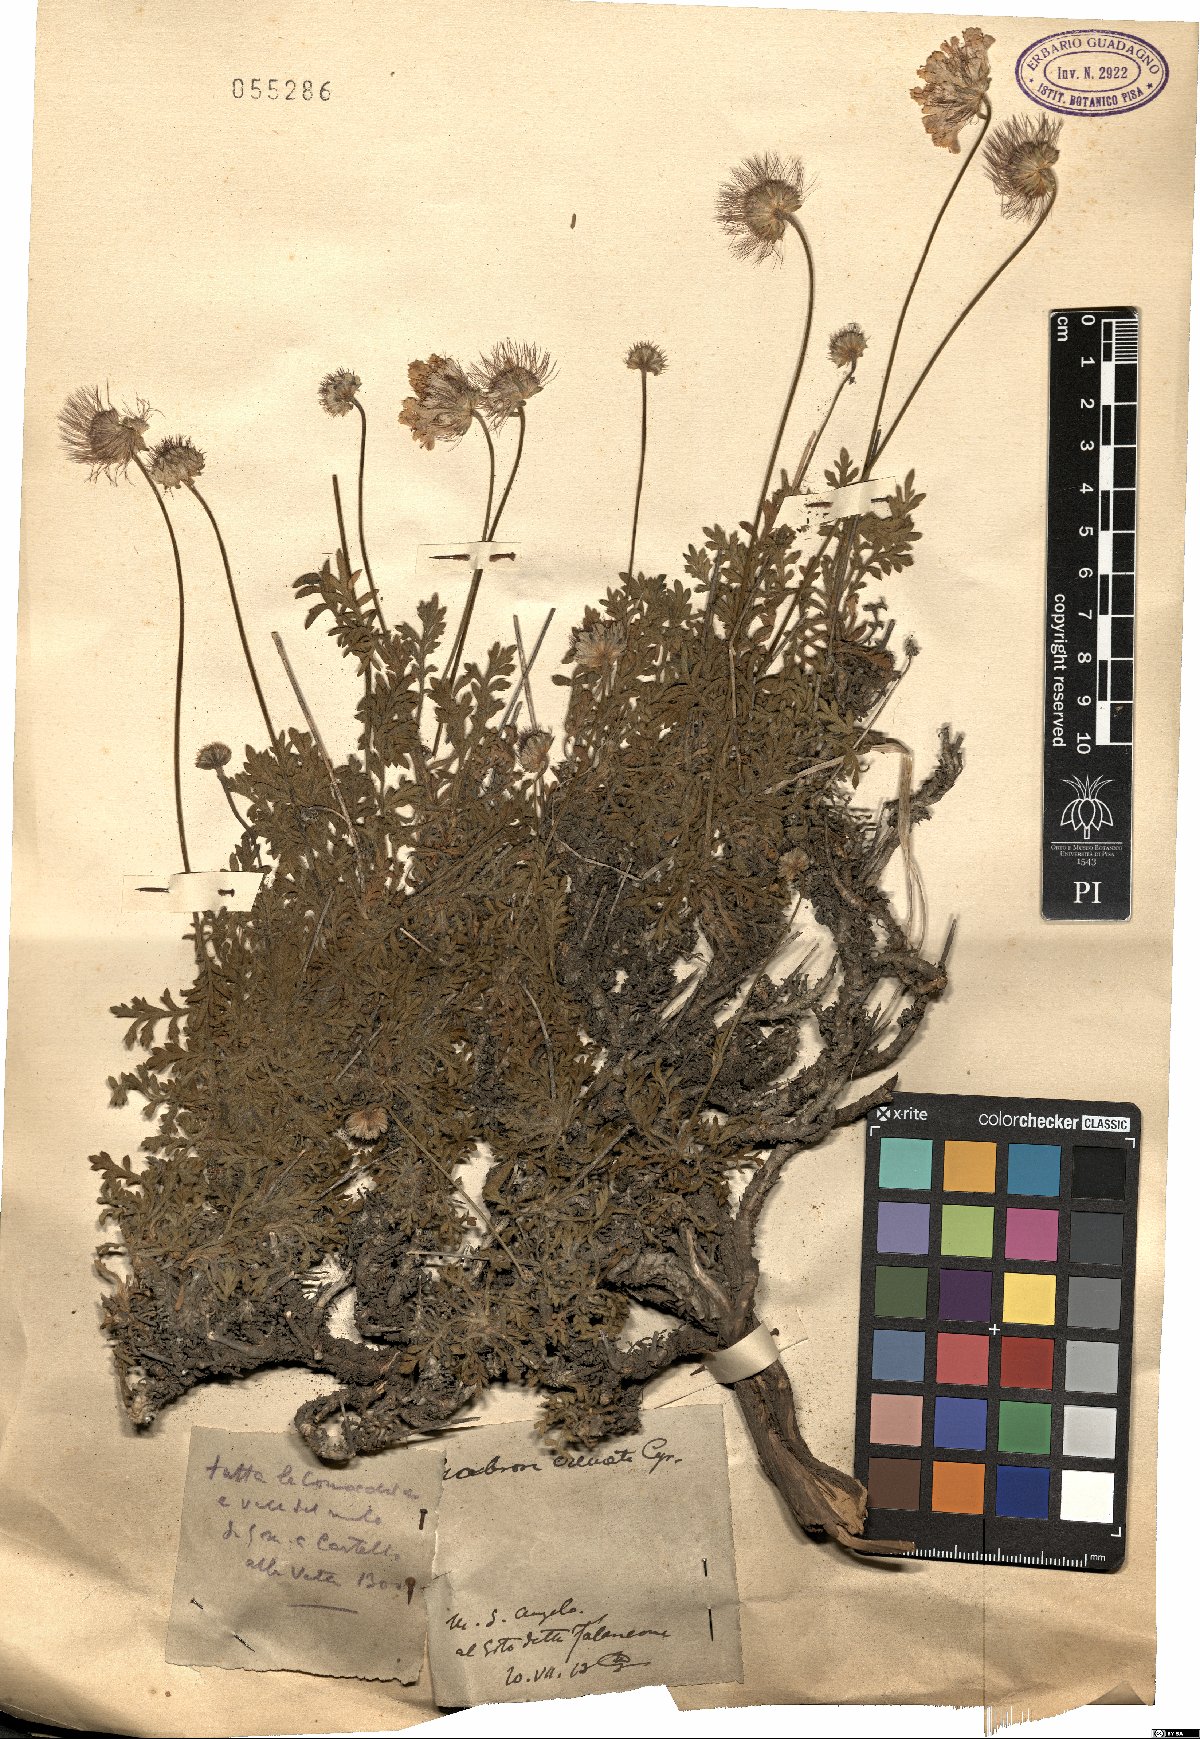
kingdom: Plantae
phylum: Tracheophyta
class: Magnoliopsida
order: Dipsacales
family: Caprifoliaceae
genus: Lomelosia
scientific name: Lomelosia crenata
